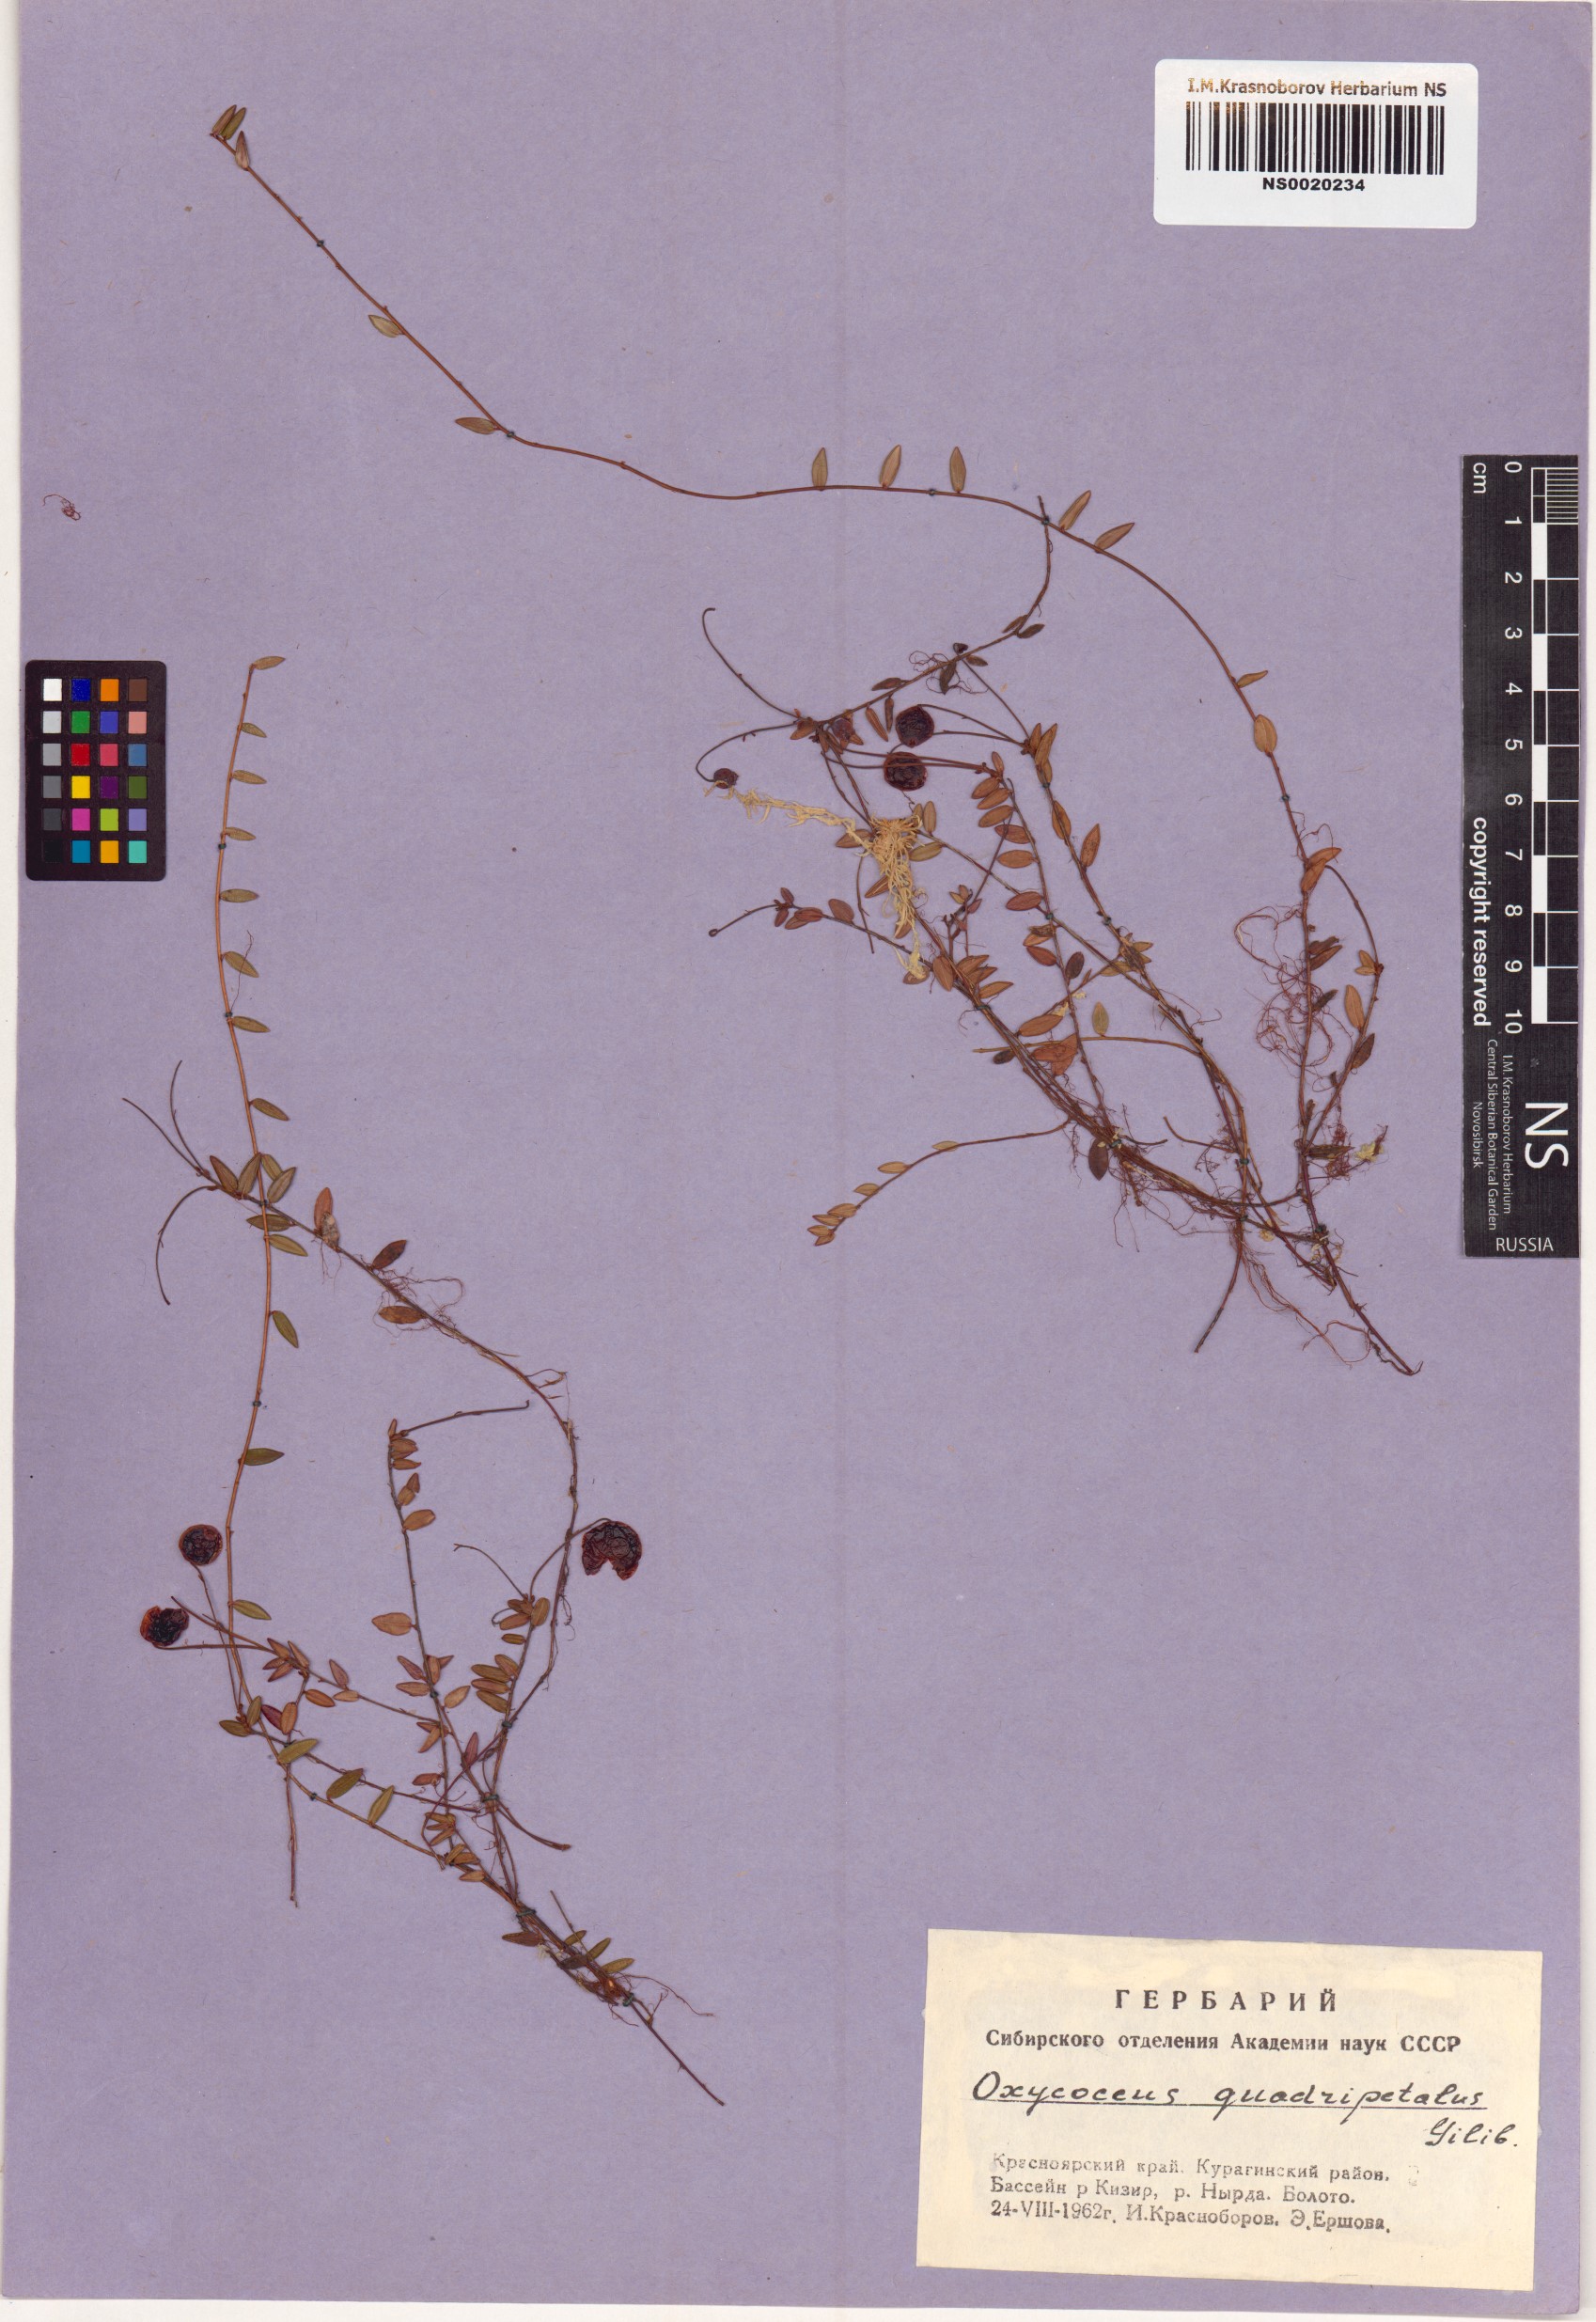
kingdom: Plantae
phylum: Tracheophyta
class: Magnoliopsida
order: Ericales
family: Ericaceae
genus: Vaccinium
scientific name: Vaccinium oxycoccos
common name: Cranberry
